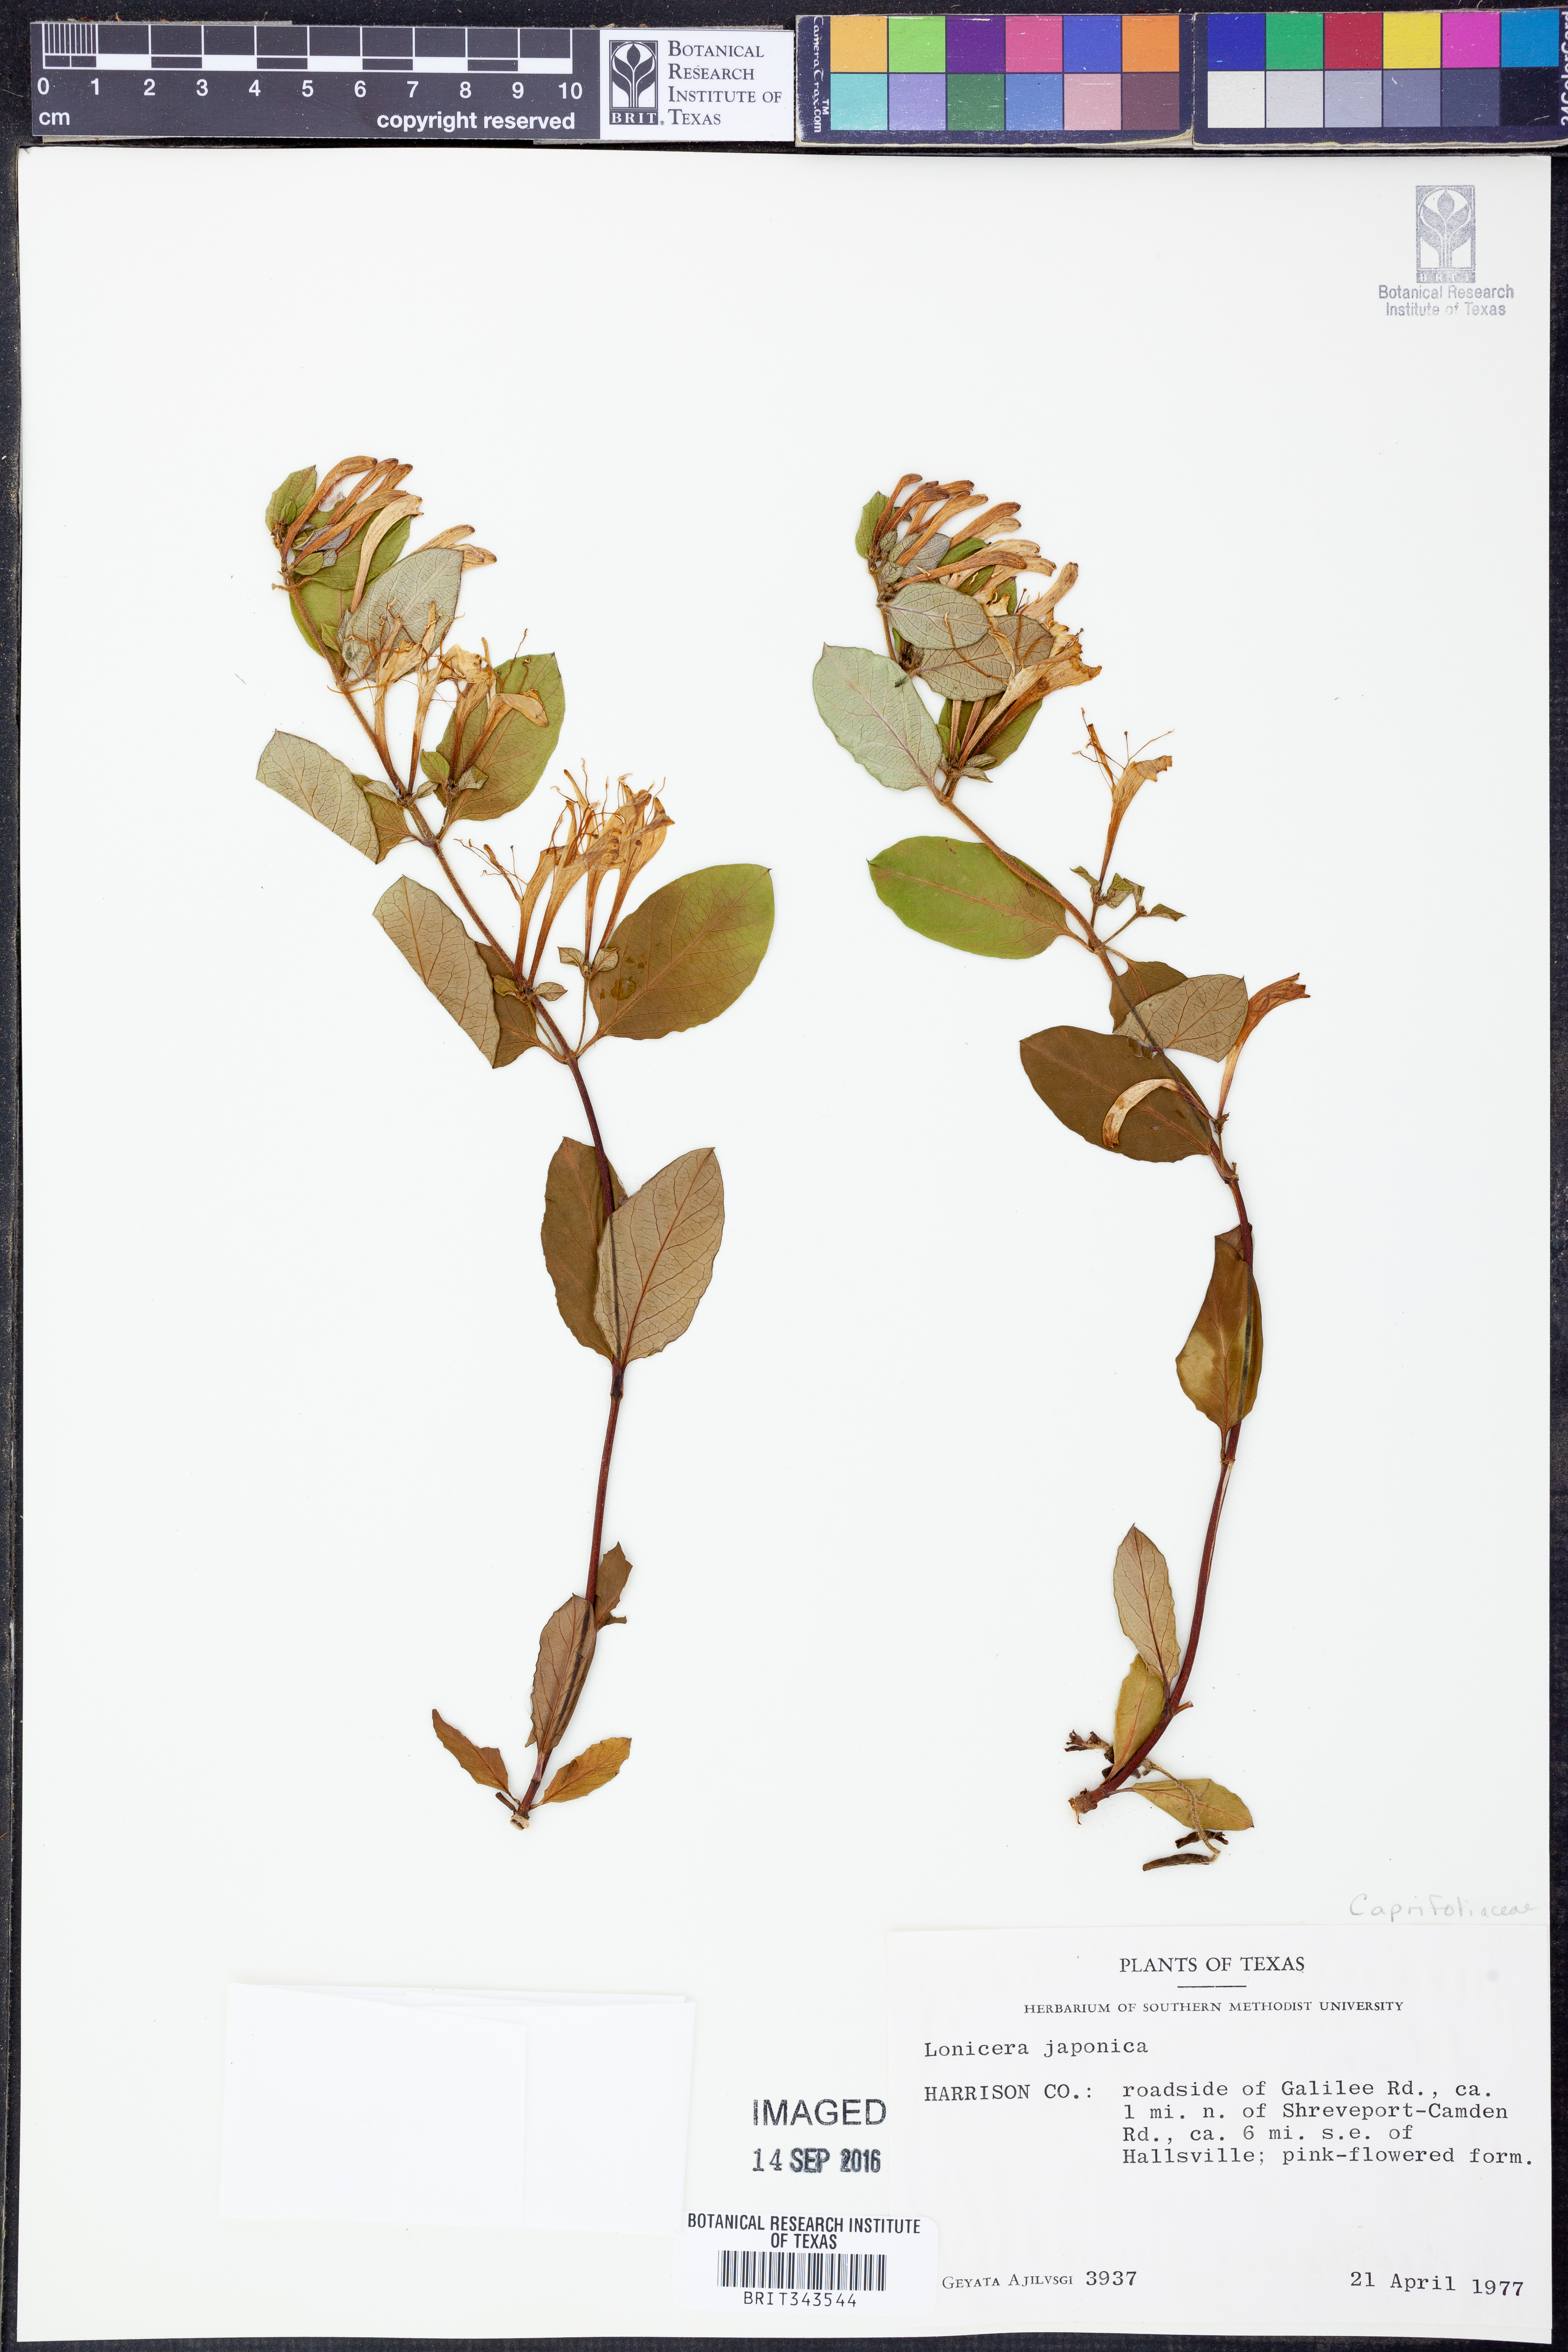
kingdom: Plantae
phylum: Tracheophyta
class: Magnoliopsida
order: Dipsacales
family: Caprifoliaceae
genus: Lonicera
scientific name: Lonicera japonica
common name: Japanese honeysuckle
